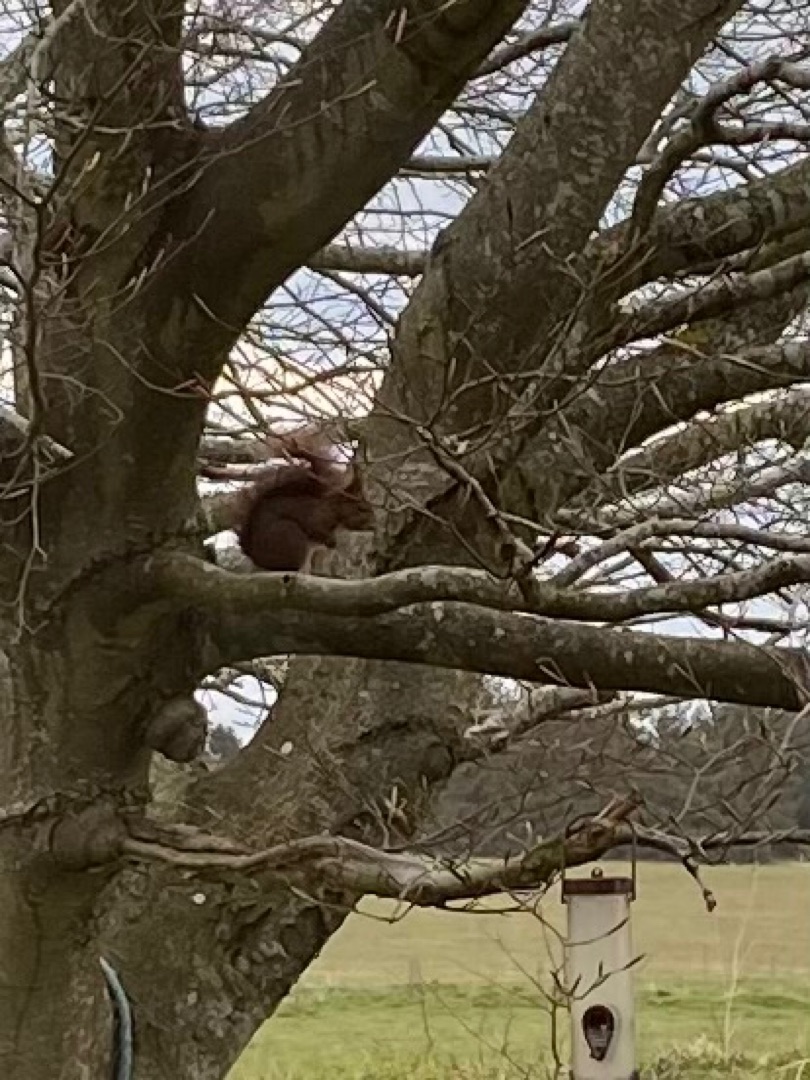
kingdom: Animalia
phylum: Chordata
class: Mammalia
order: Rodentia
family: Sciuridae
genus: Sciurus
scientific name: Sciurus vulgaris
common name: Egern
